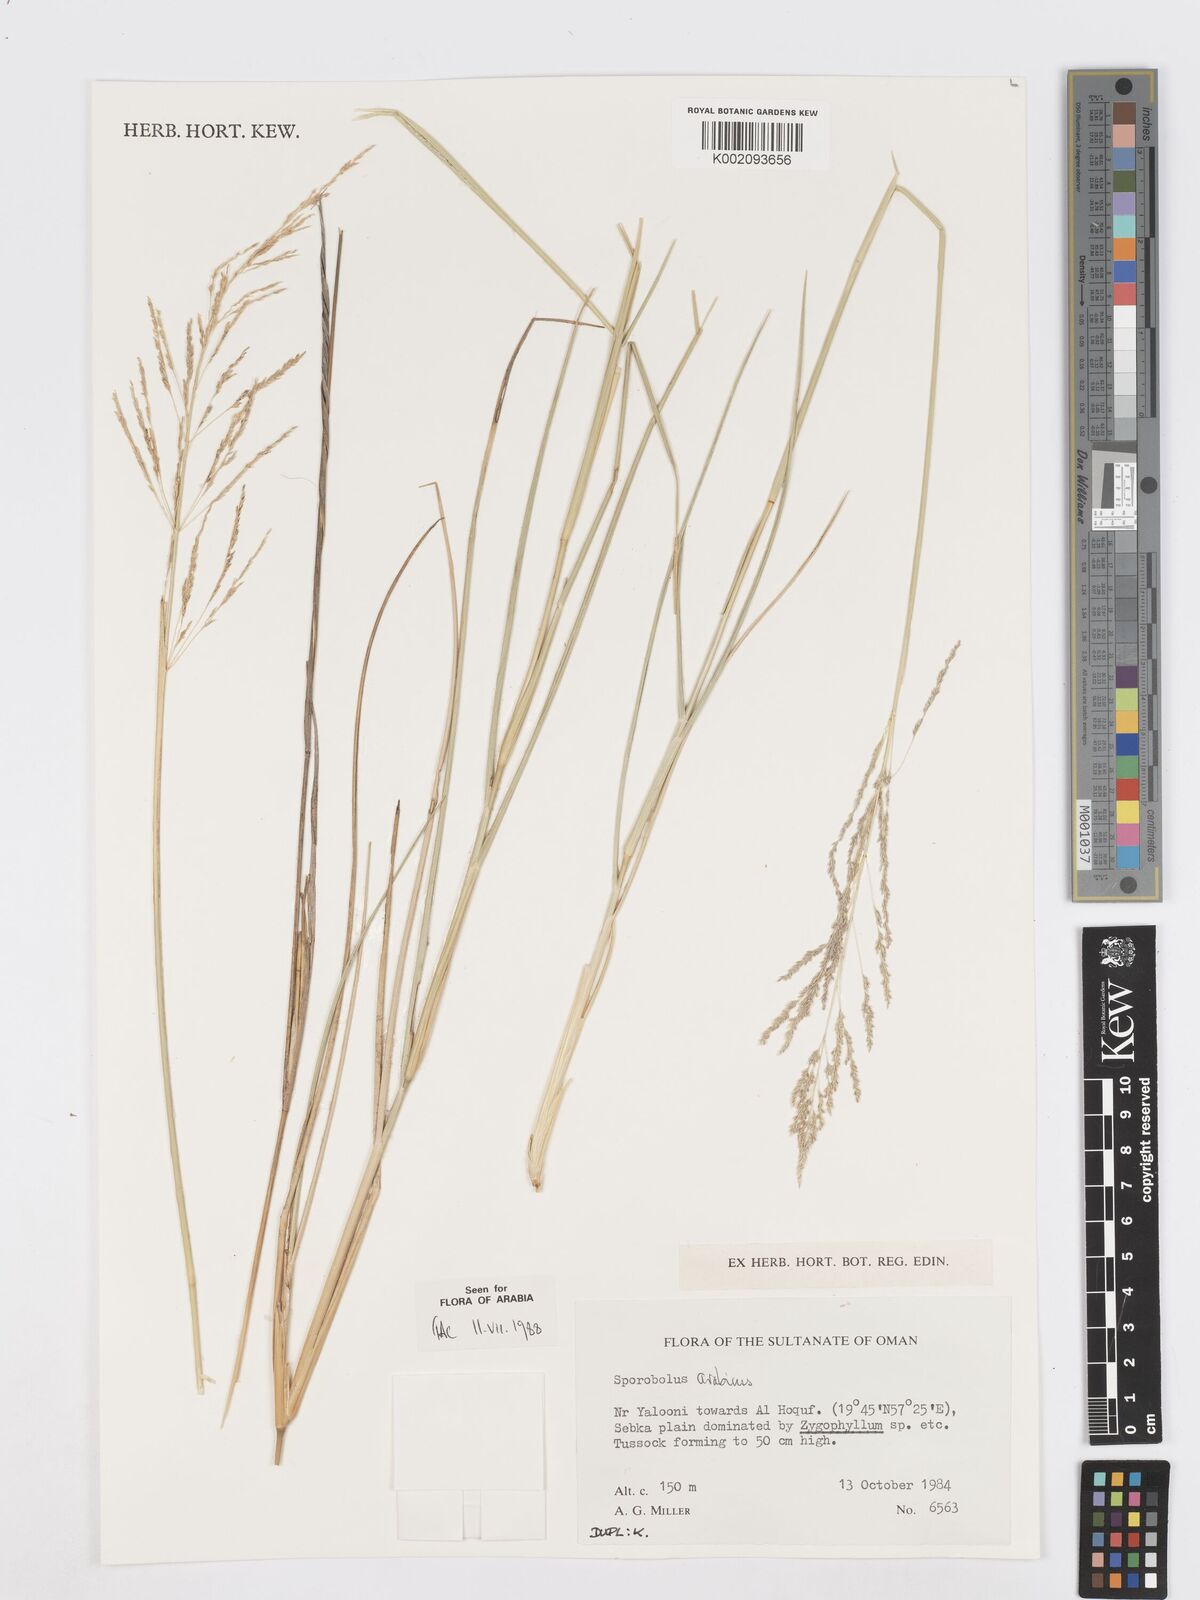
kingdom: Plantae
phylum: Tracheophyta
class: Liliopsida
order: Poales
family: Poaceae
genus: Sporobolus
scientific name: Sporobolus ioclados
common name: Pan dropseed
